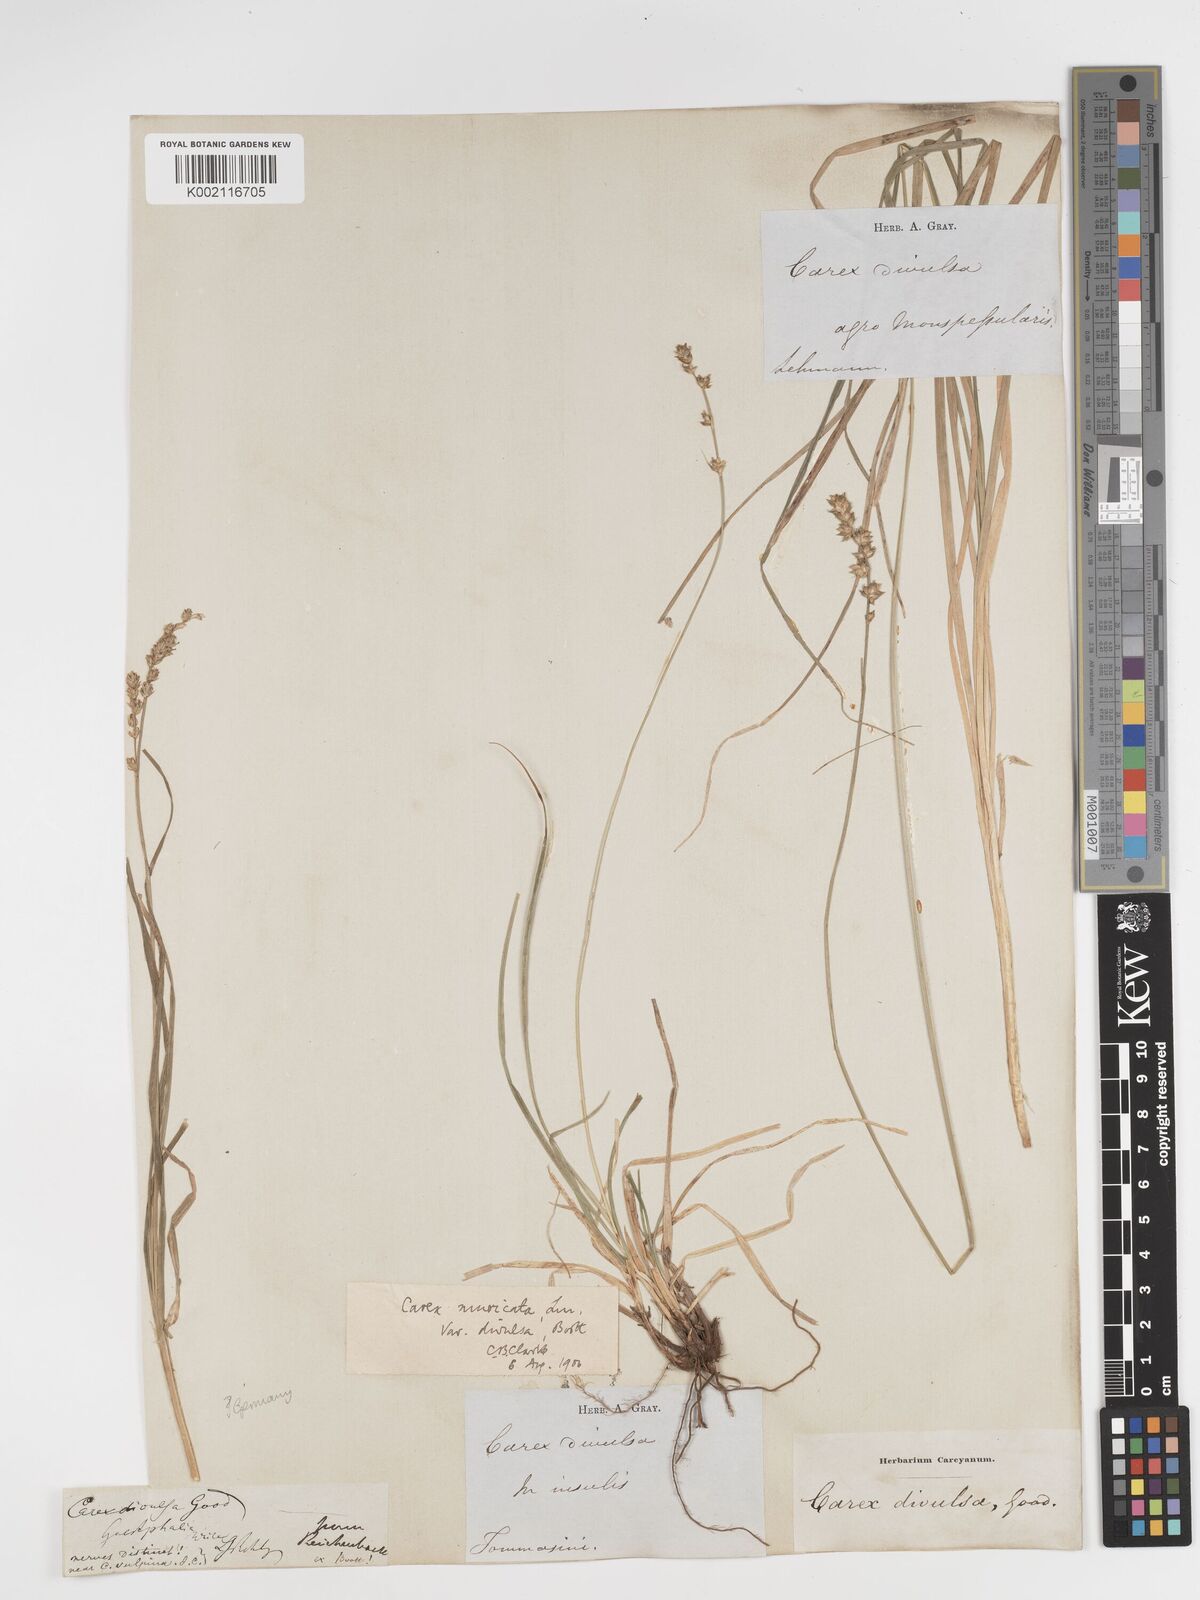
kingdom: Plantae
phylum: Tracheophyta
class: Liliopsida
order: Poales
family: Cyperaceae
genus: Carex
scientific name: Carex divulsa
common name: Grassland sedge
